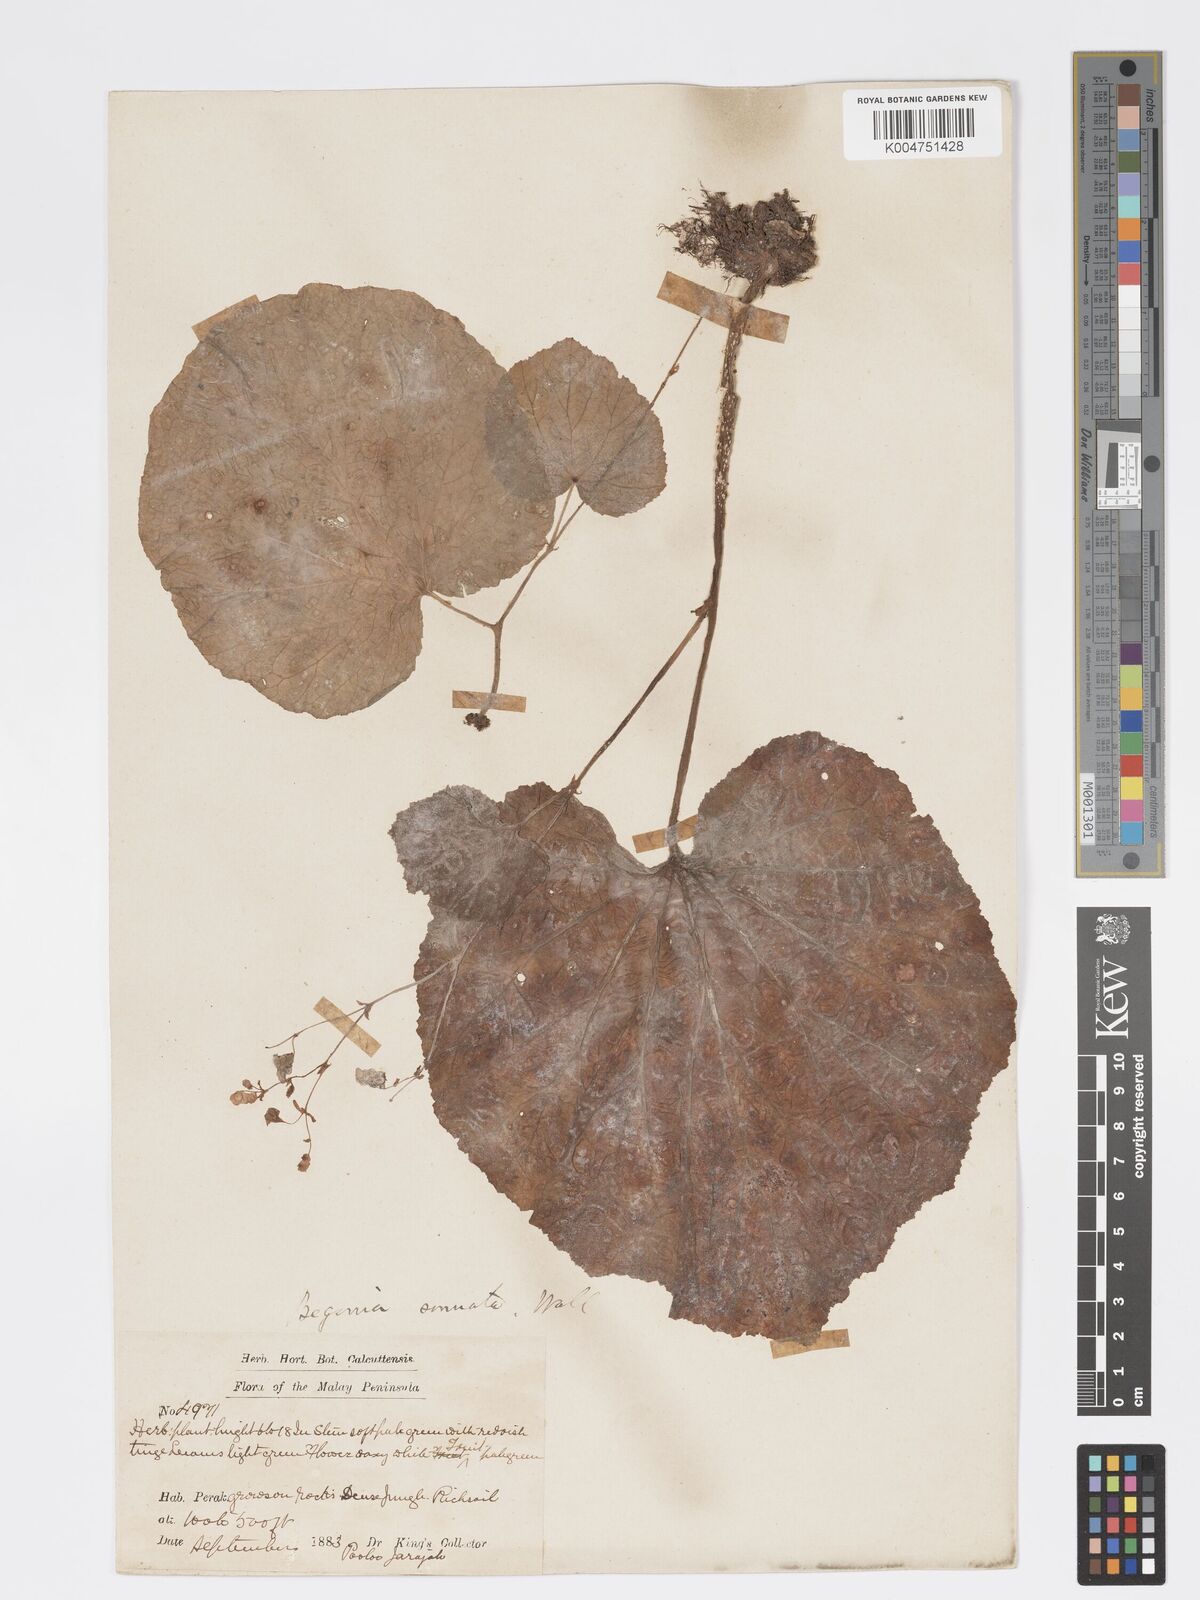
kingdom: Plantae
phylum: Tracheophyta
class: Magnoliopsida
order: Cucurbitales
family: Begoniaceae
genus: Begonia
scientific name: Begonia
